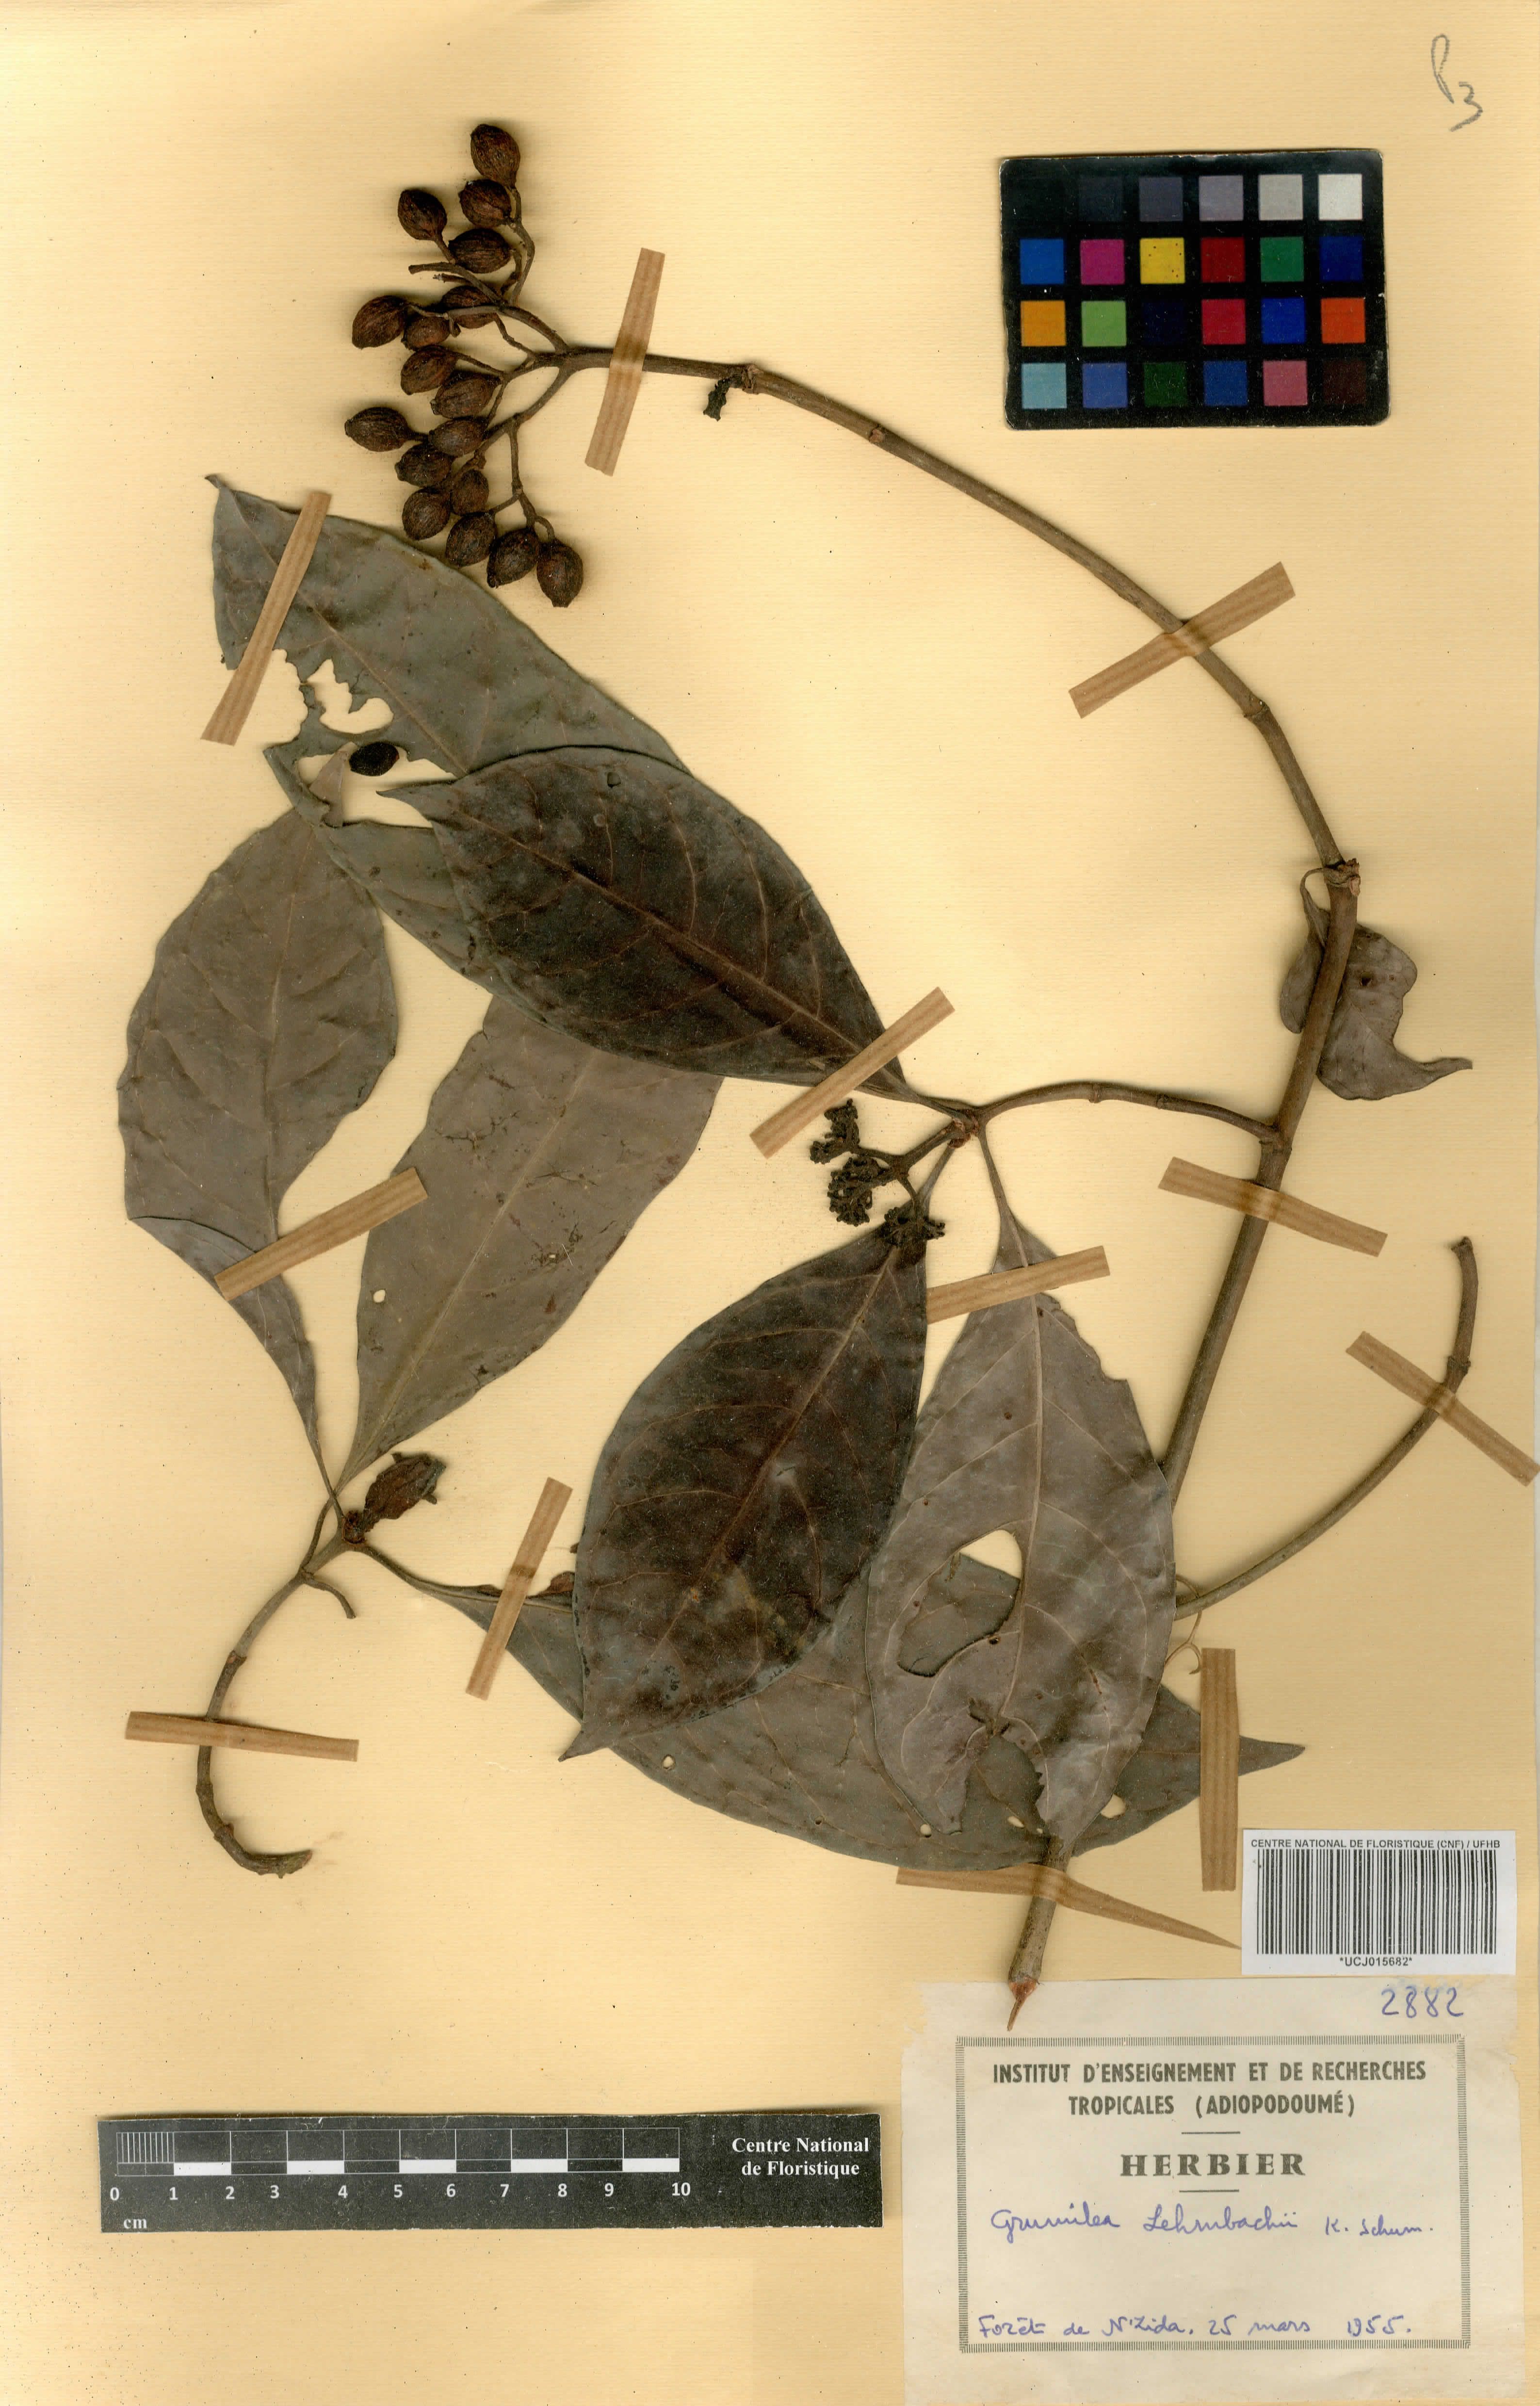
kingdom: Plantae
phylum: Tracheophyta
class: Magnoliopsida
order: Gentianales
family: Rubiaceae
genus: Psychotria
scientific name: Psychotria gabonica
